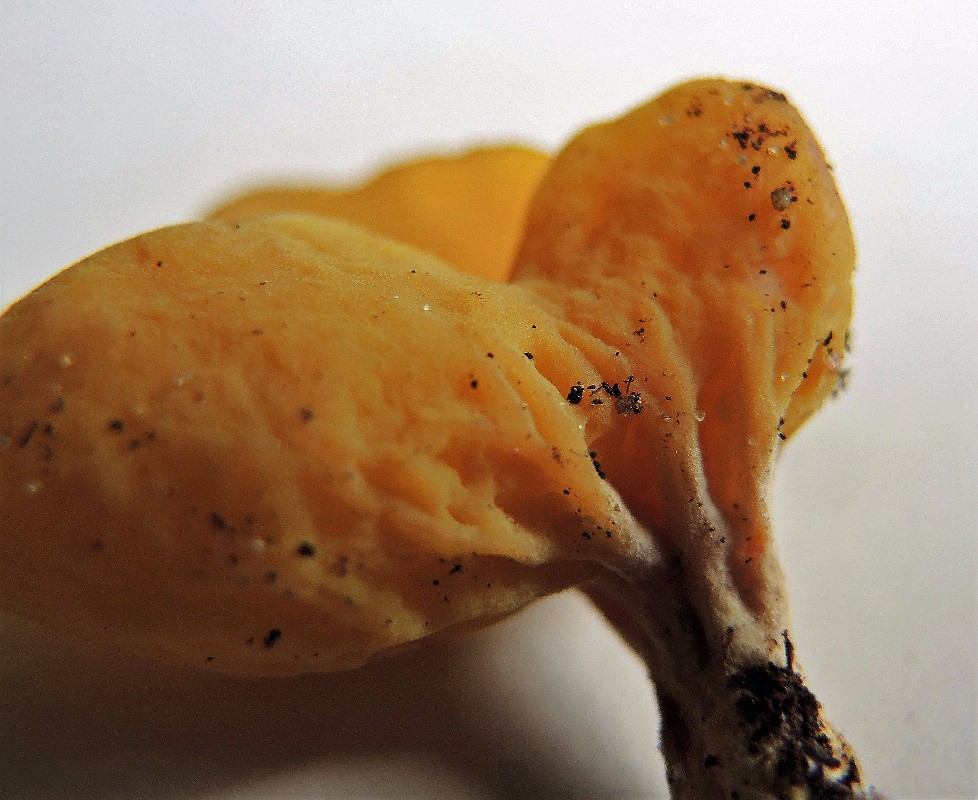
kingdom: Fungi
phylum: Ascomycota
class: Pezizomycetes
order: Pezizales
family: Otideaceae
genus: Otidea
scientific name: Otidea minor
